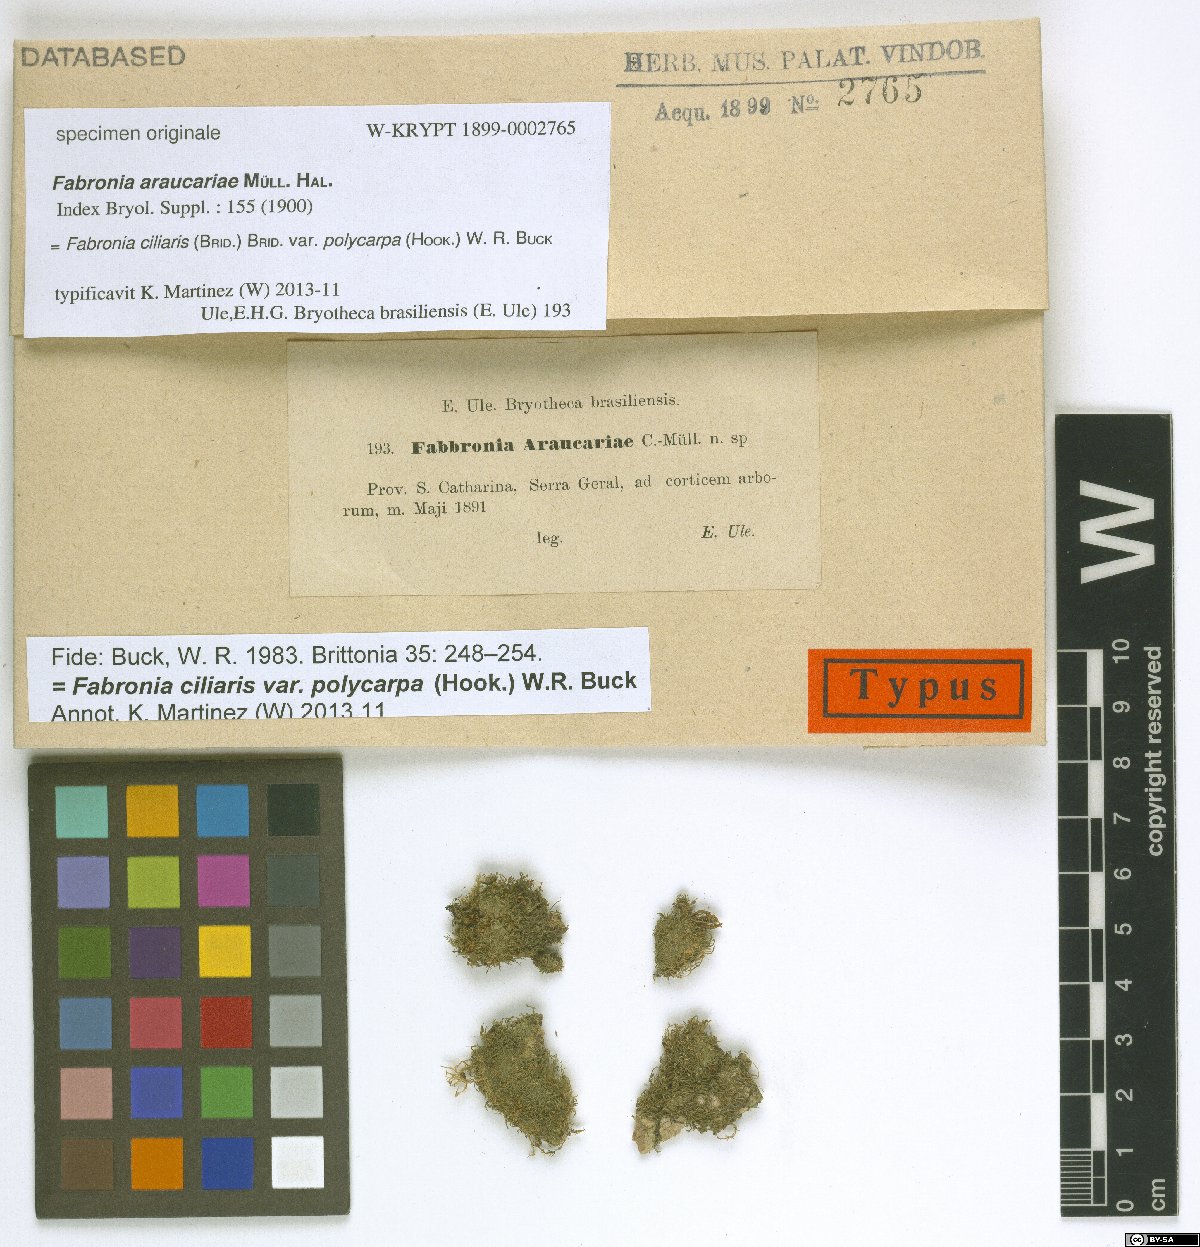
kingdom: Plantae
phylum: Bryophyta
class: Bryopsida
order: Hypnales
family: Fabroniaceae
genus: Fabronia
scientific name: Fabronia ciliaris
